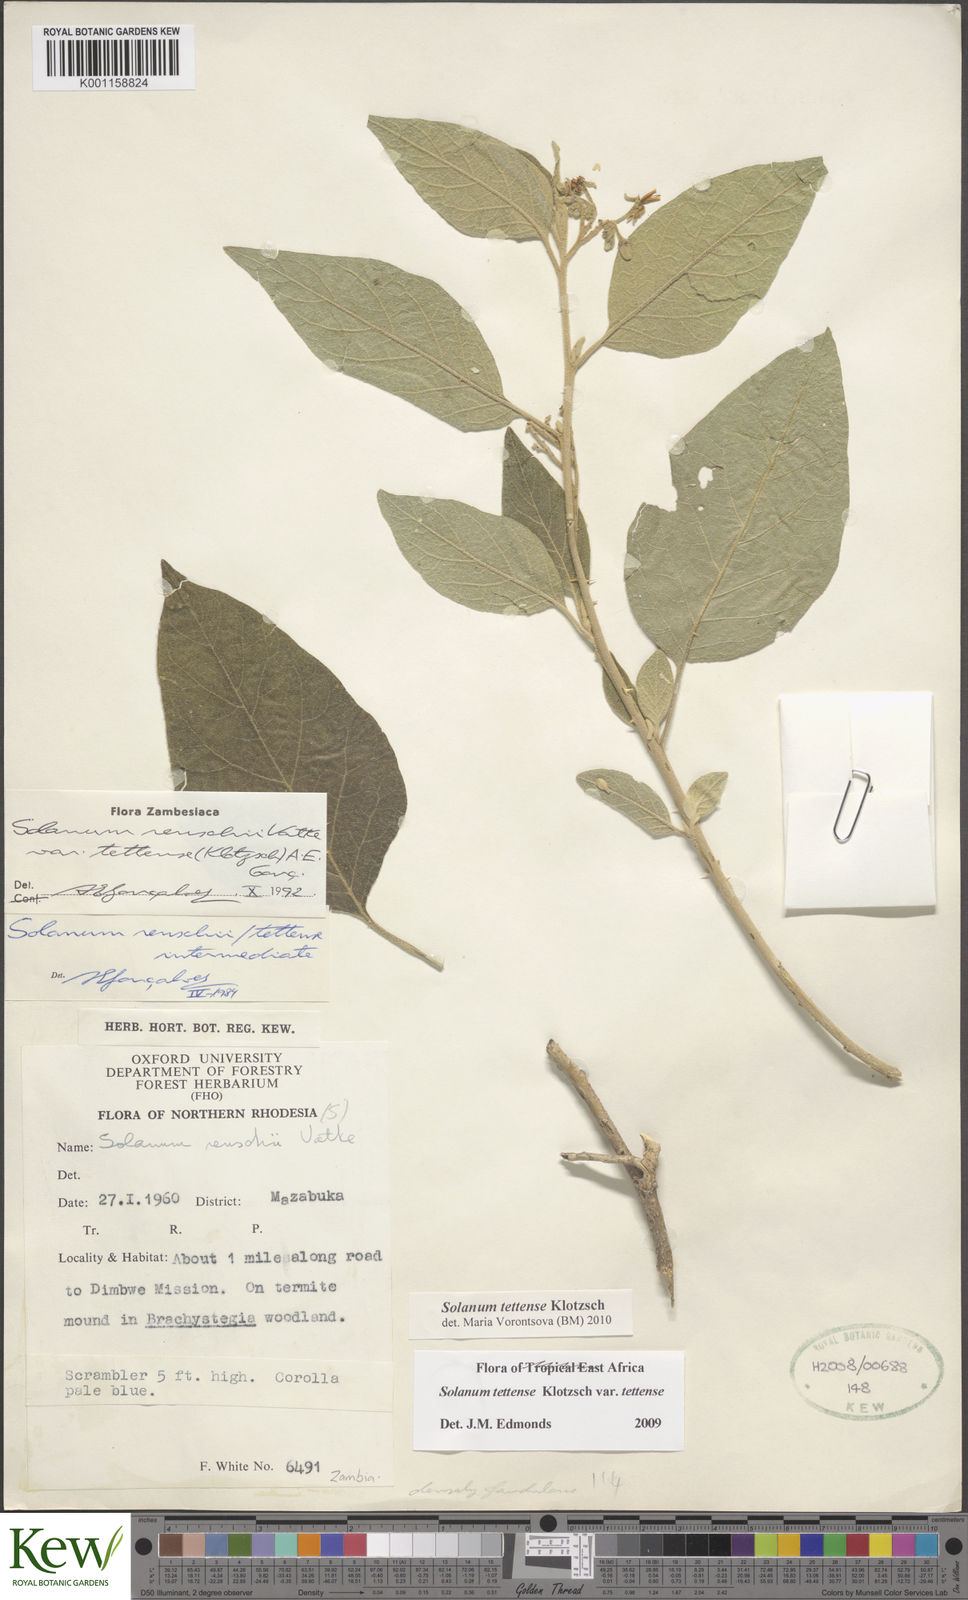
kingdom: Plantae
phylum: Tracheophyta
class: Magnoliopsida
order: Solanales
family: Solanaceae
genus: Solanum
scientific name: Solanum tettense
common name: Mozambique bitter apple
